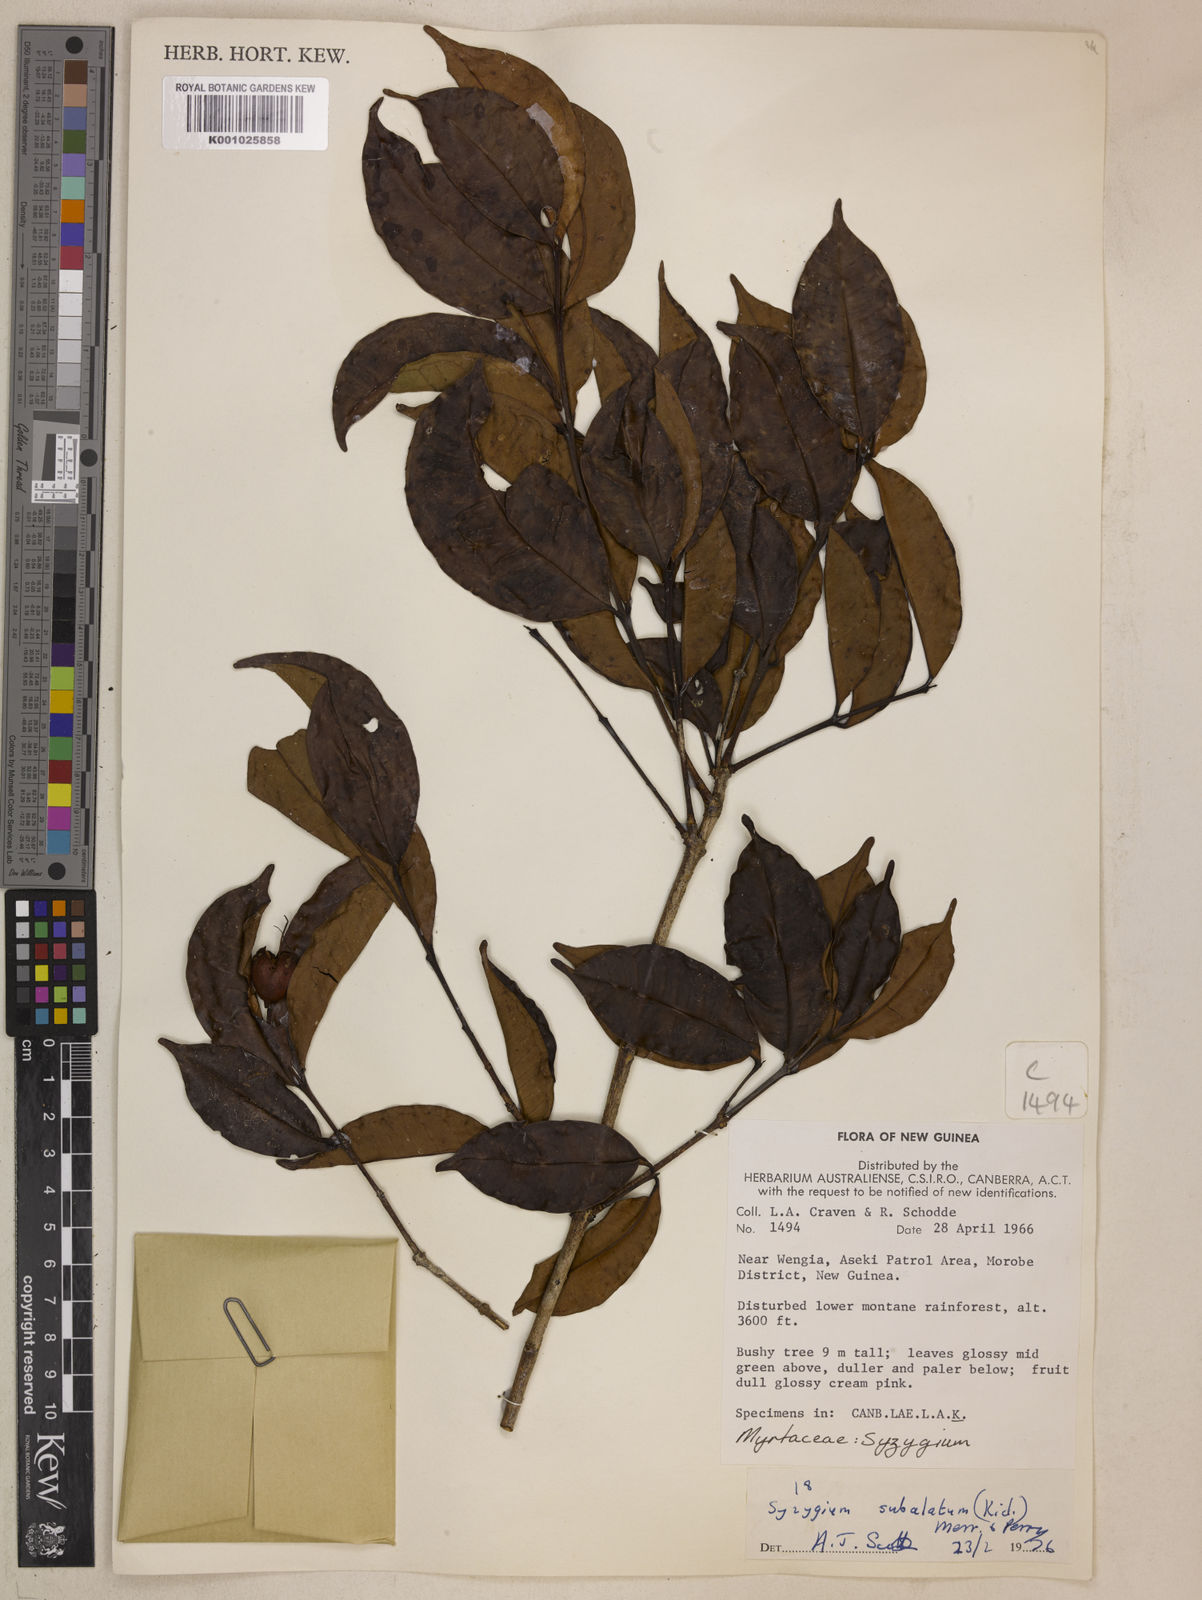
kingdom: Plantae
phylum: Tracheophyta
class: Magnoliopsida
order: Myrtales
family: Myrtaceae
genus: Syzygium
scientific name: Syzygium subalatum
